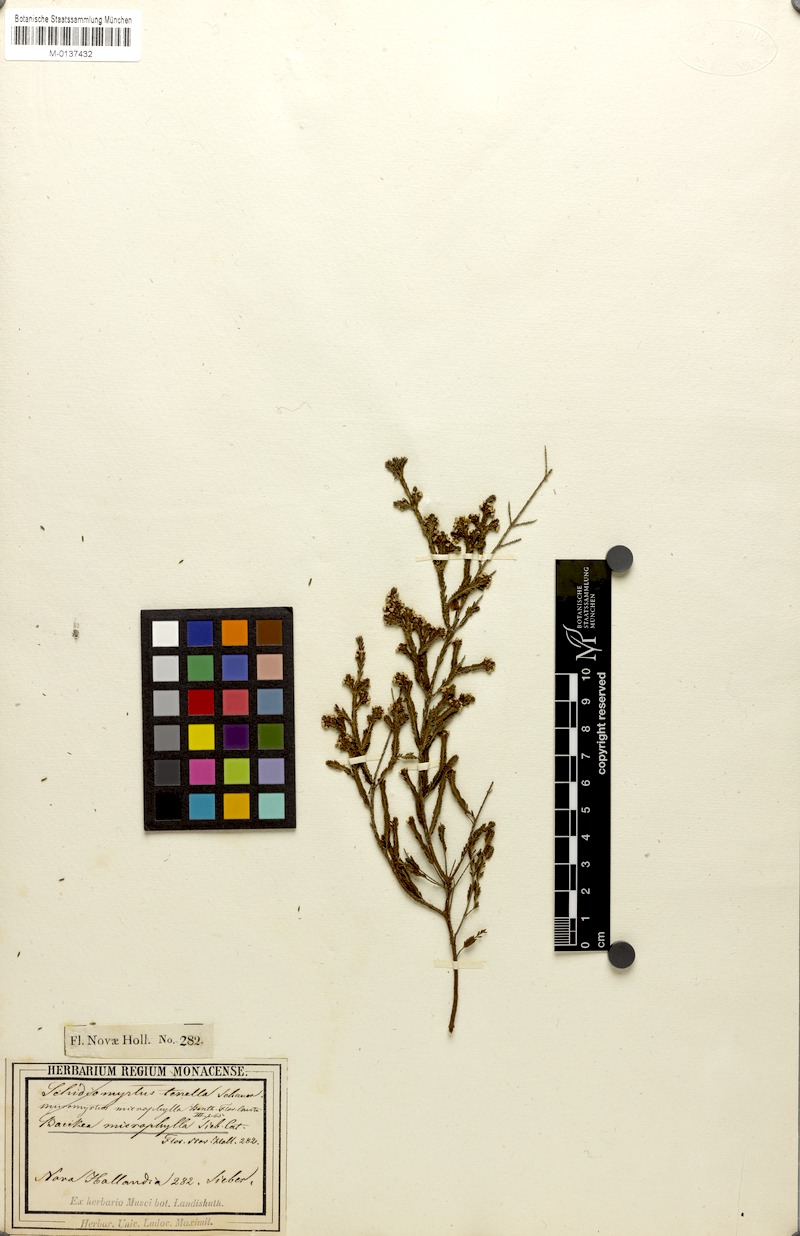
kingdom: Plantae
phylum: Tracheophyta
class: Magnoliopsida
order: Myrtales
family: Myrtaceae
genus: Micromyrtus
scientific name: Micromyrtus ciliata
